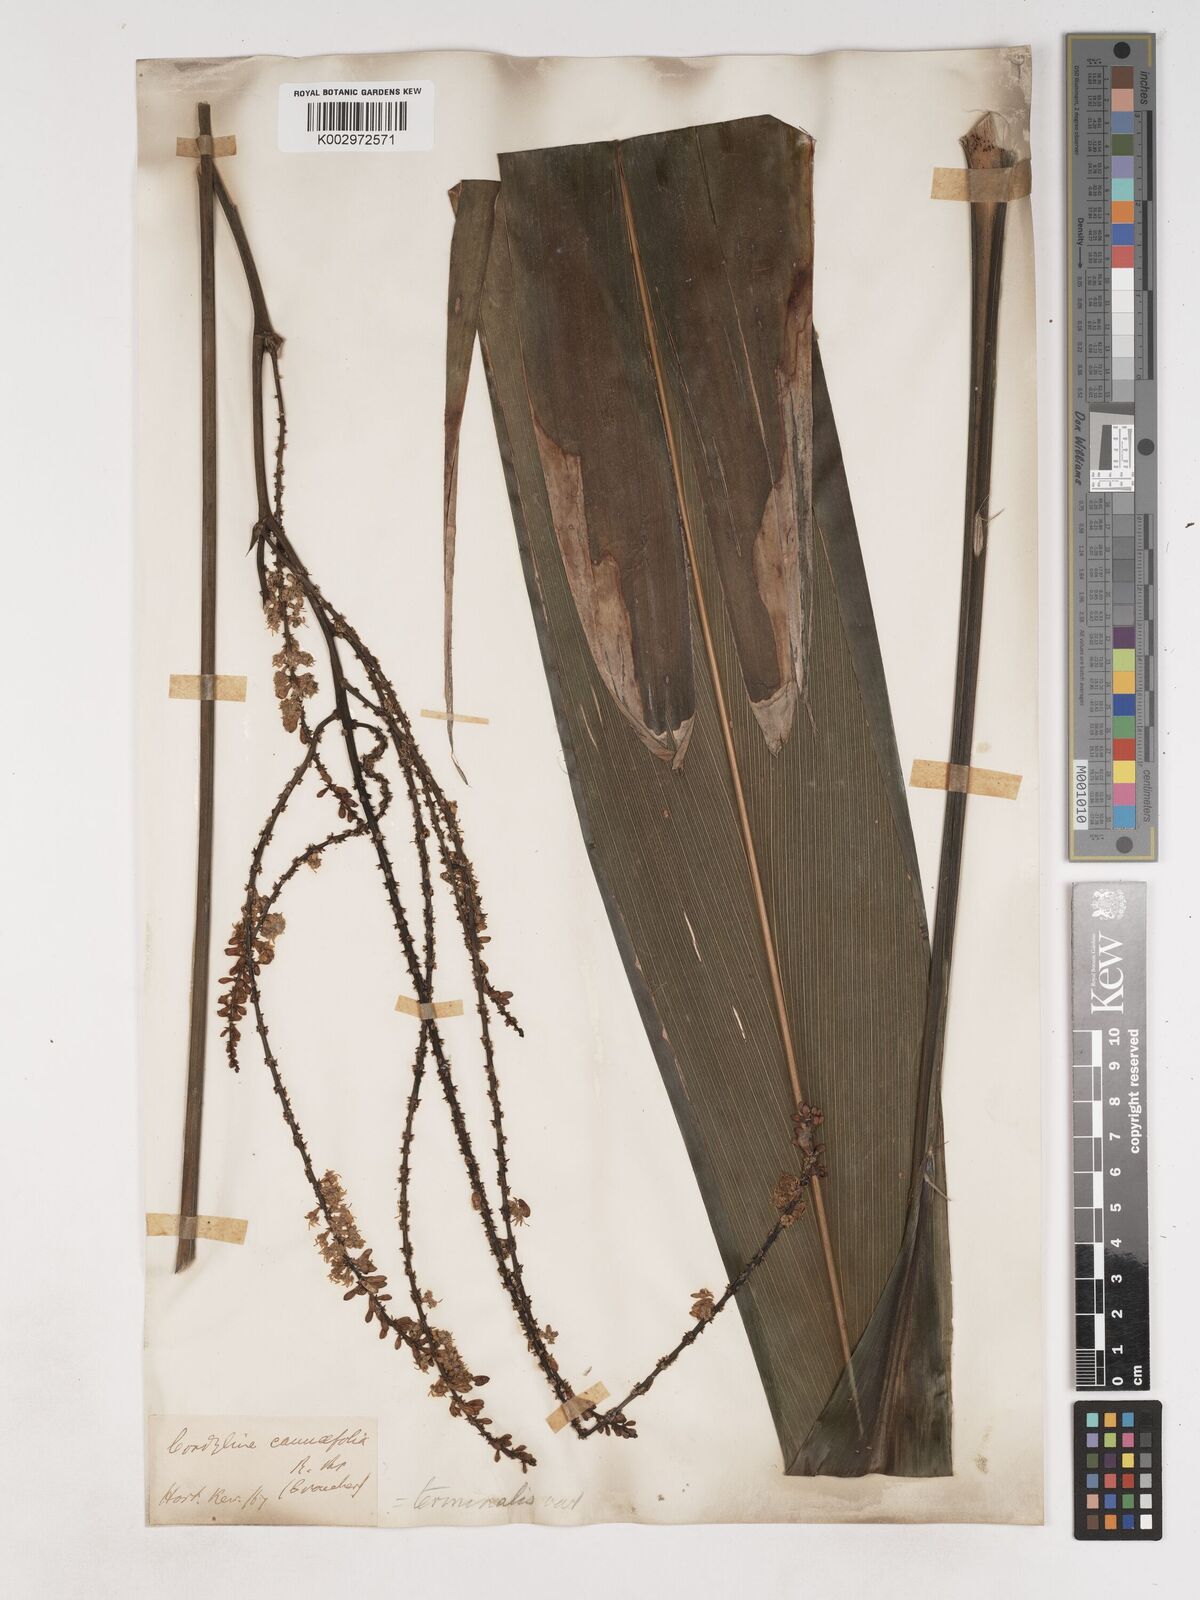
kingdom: Plantae
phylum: Tracheophyta
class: Liliopsida
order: Asparagales
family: Asparagaceae
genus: Cordyline
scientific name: Cordyline fruticosa
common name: Good-luck-plant
